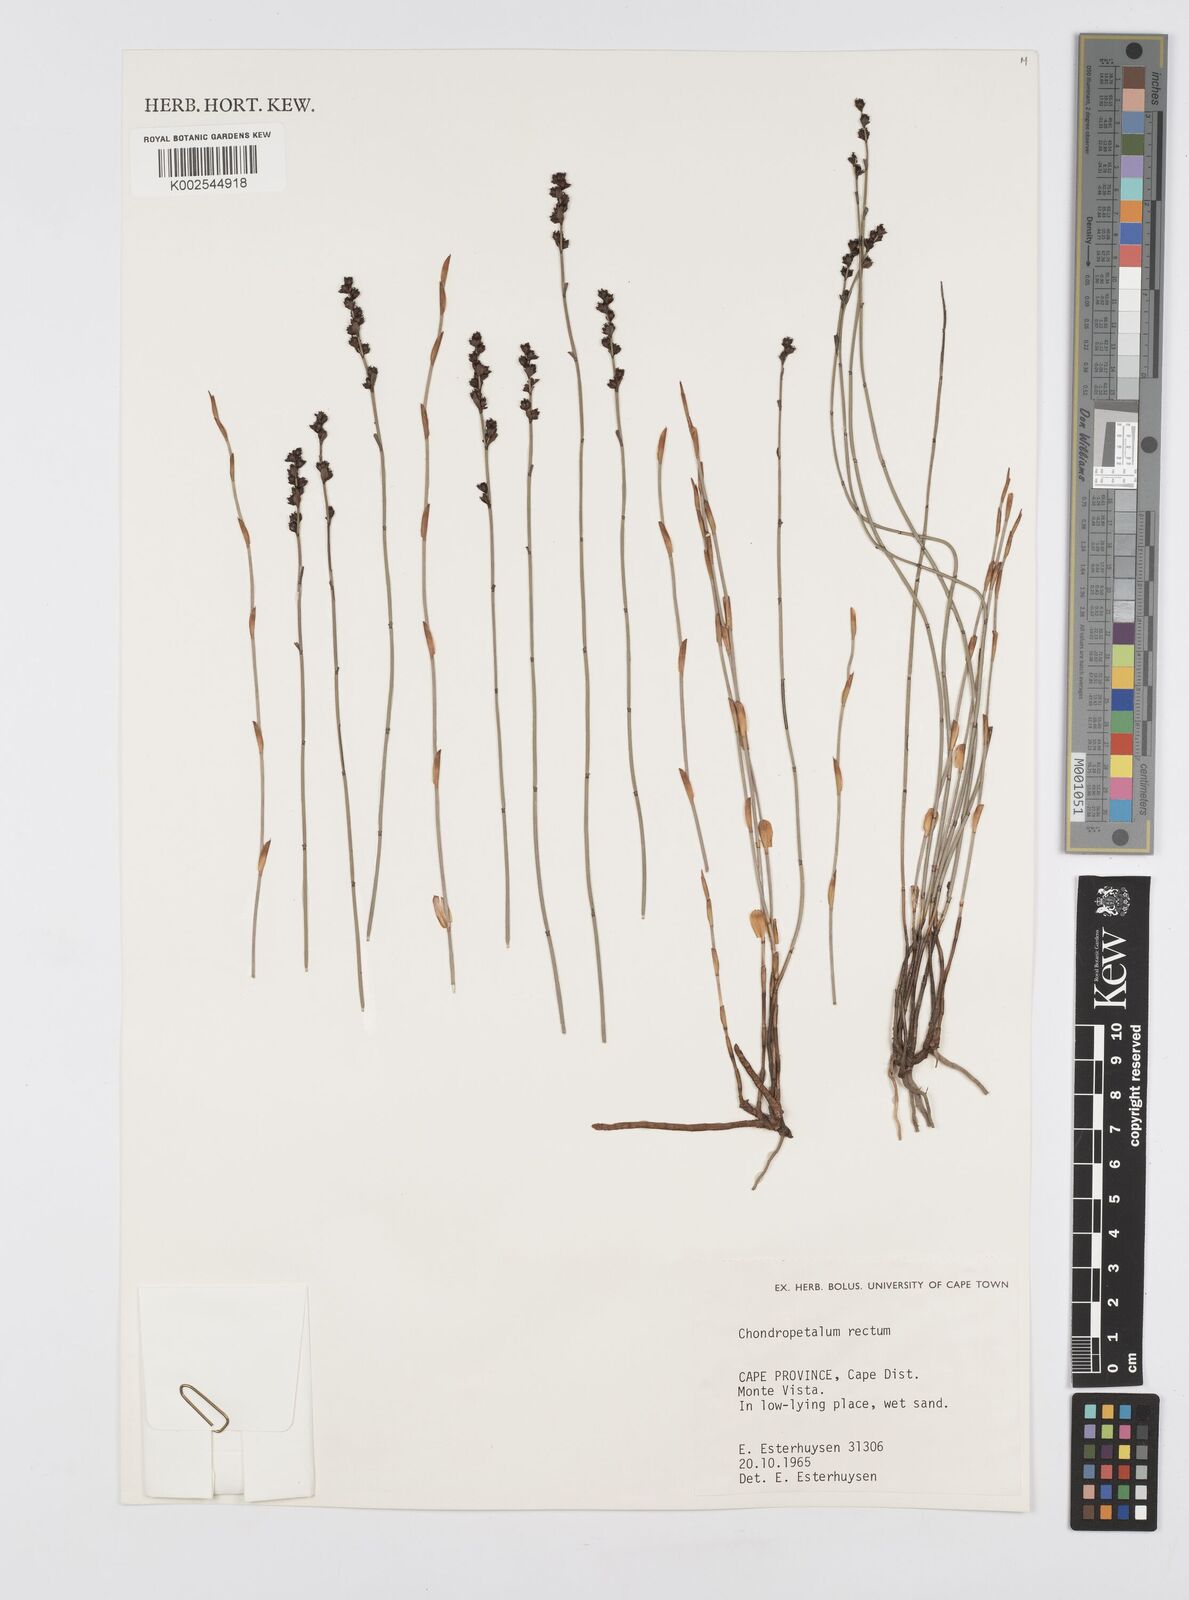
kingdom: Plantae
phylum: Tracheophyta
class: Liliopsida
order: Poales
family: Restionaceae
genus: Elegia
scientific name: Elegia recta
